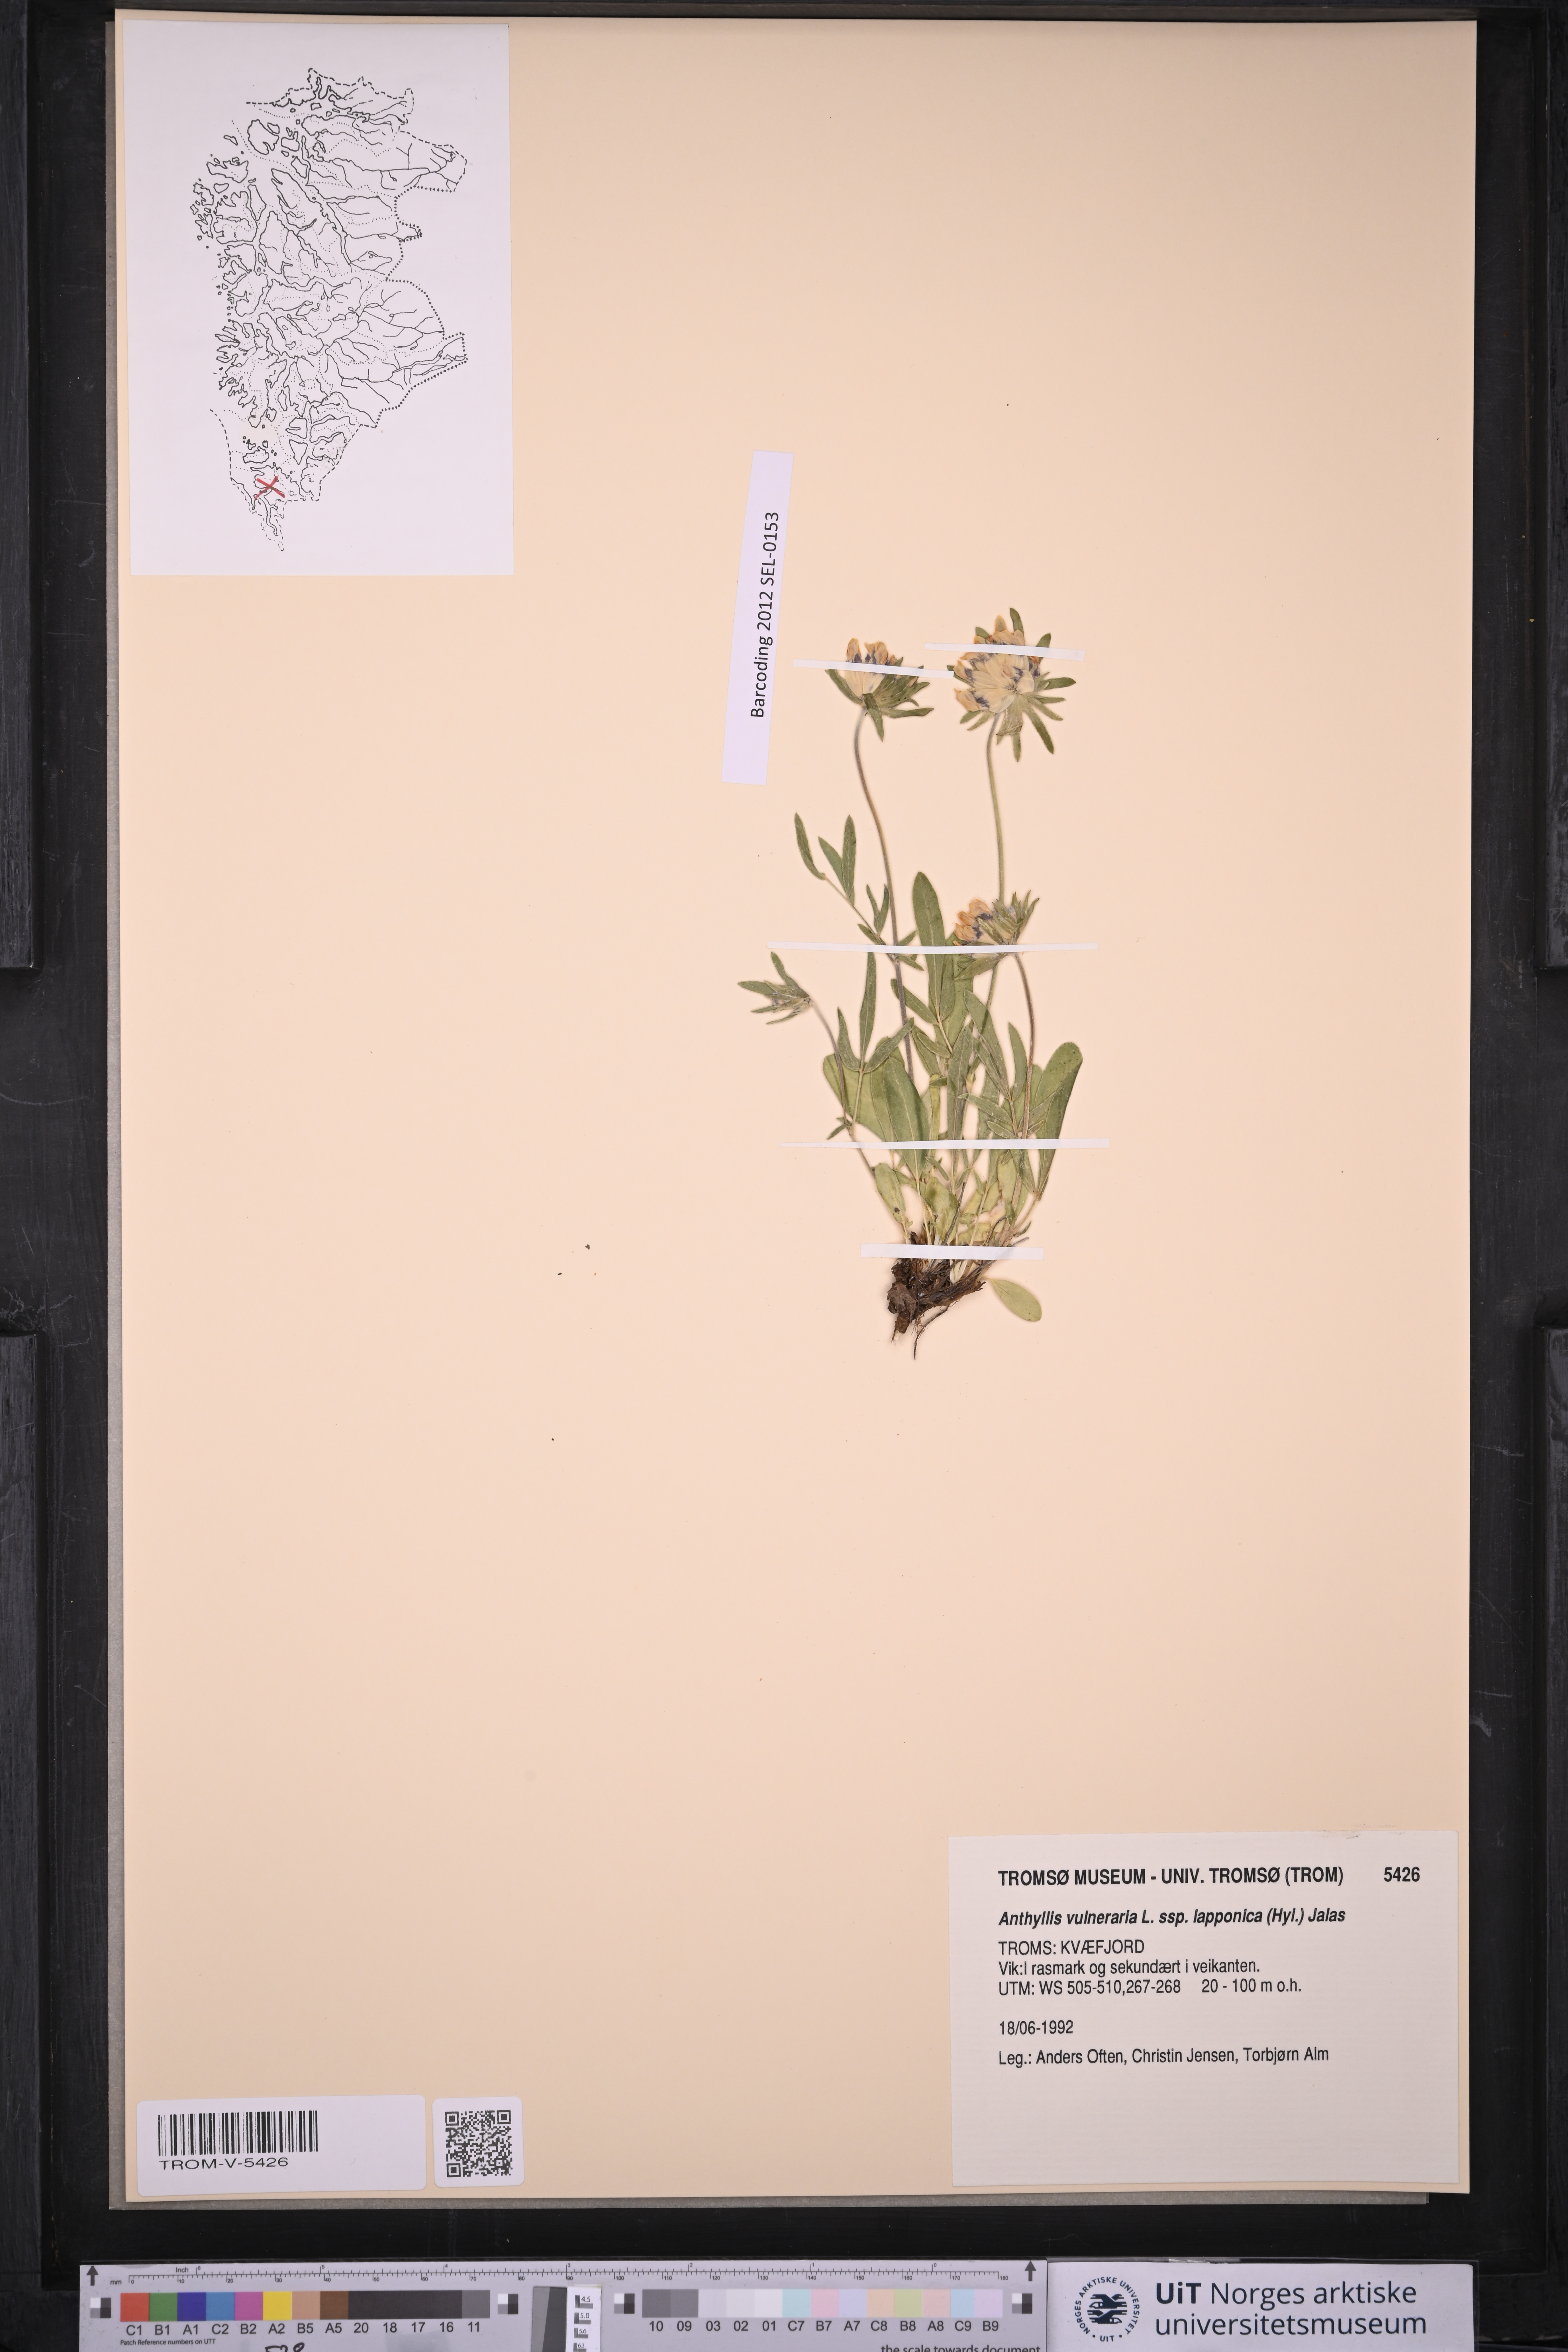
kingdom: Plantae
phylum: Tracheophyta
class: Magnoliopsida
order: Fabales
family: Fabaceae
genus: Anthyllis
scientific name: Anthyllis vulneraria
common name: Kidney vetch
